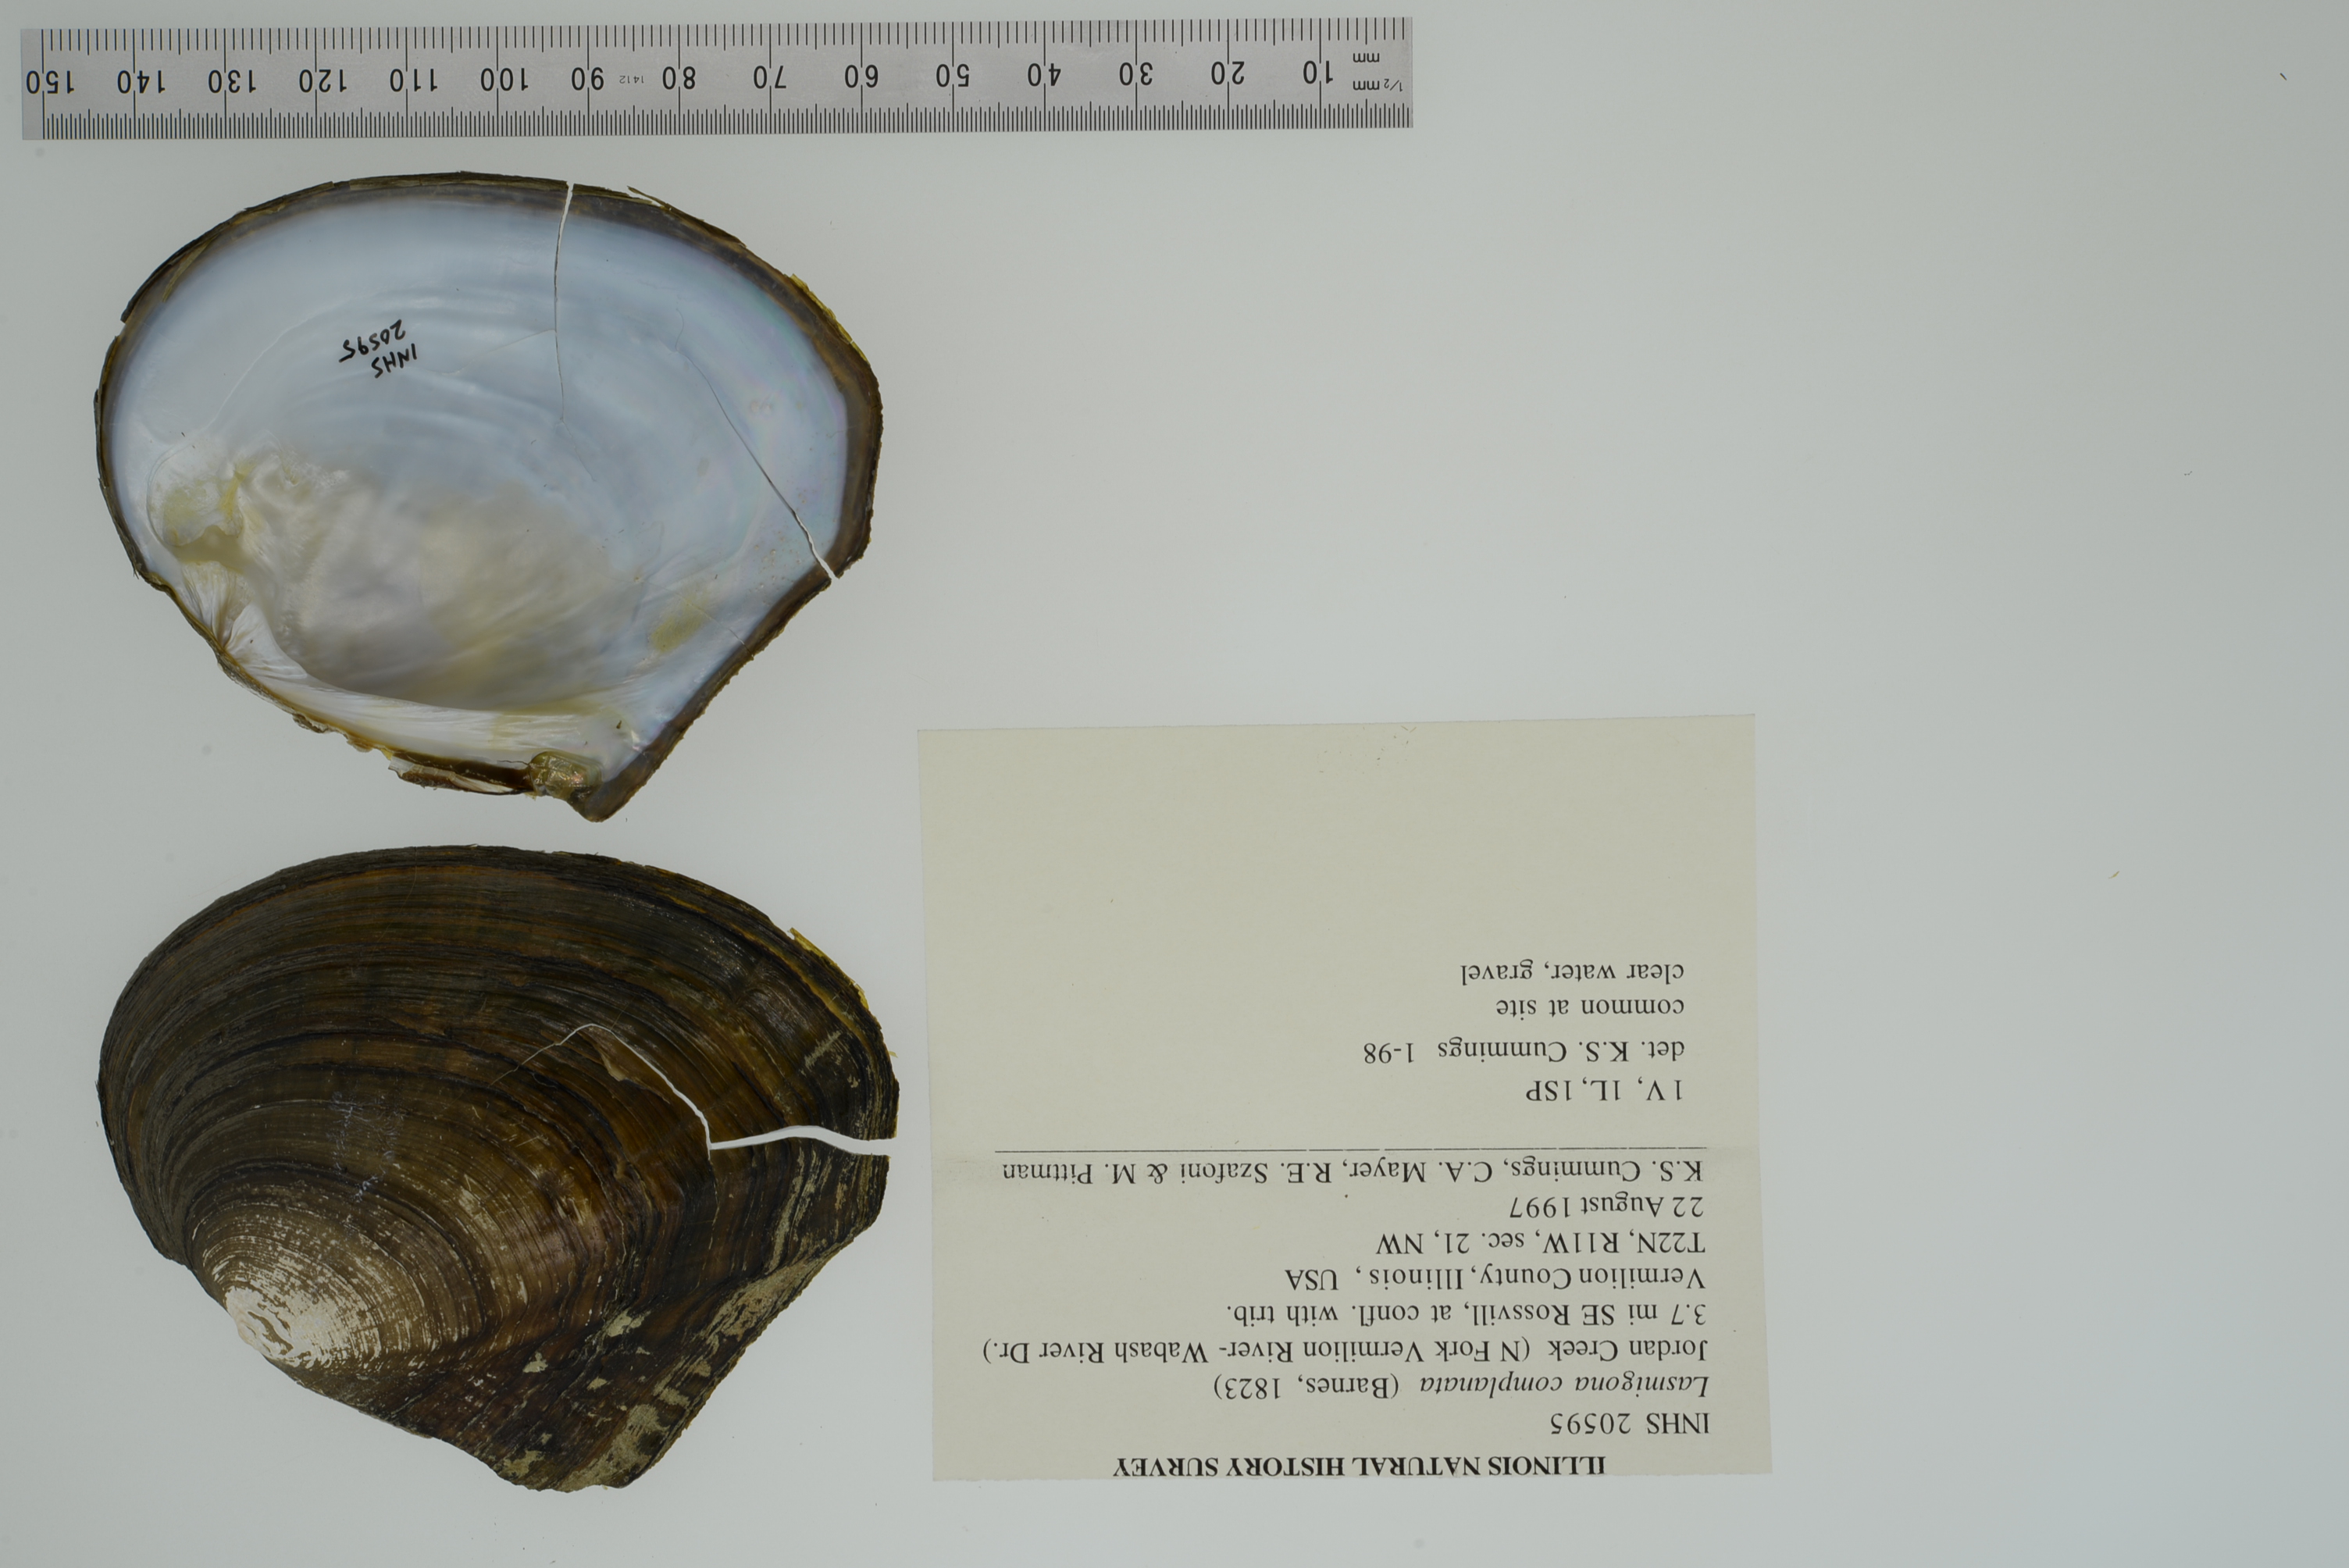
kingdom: Animalia
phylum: Mollusca
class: Bivalvia
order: Unionida
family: Unionidae
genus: Lasmigona
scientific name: Lasmigona complanata
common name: White heelsplitter
